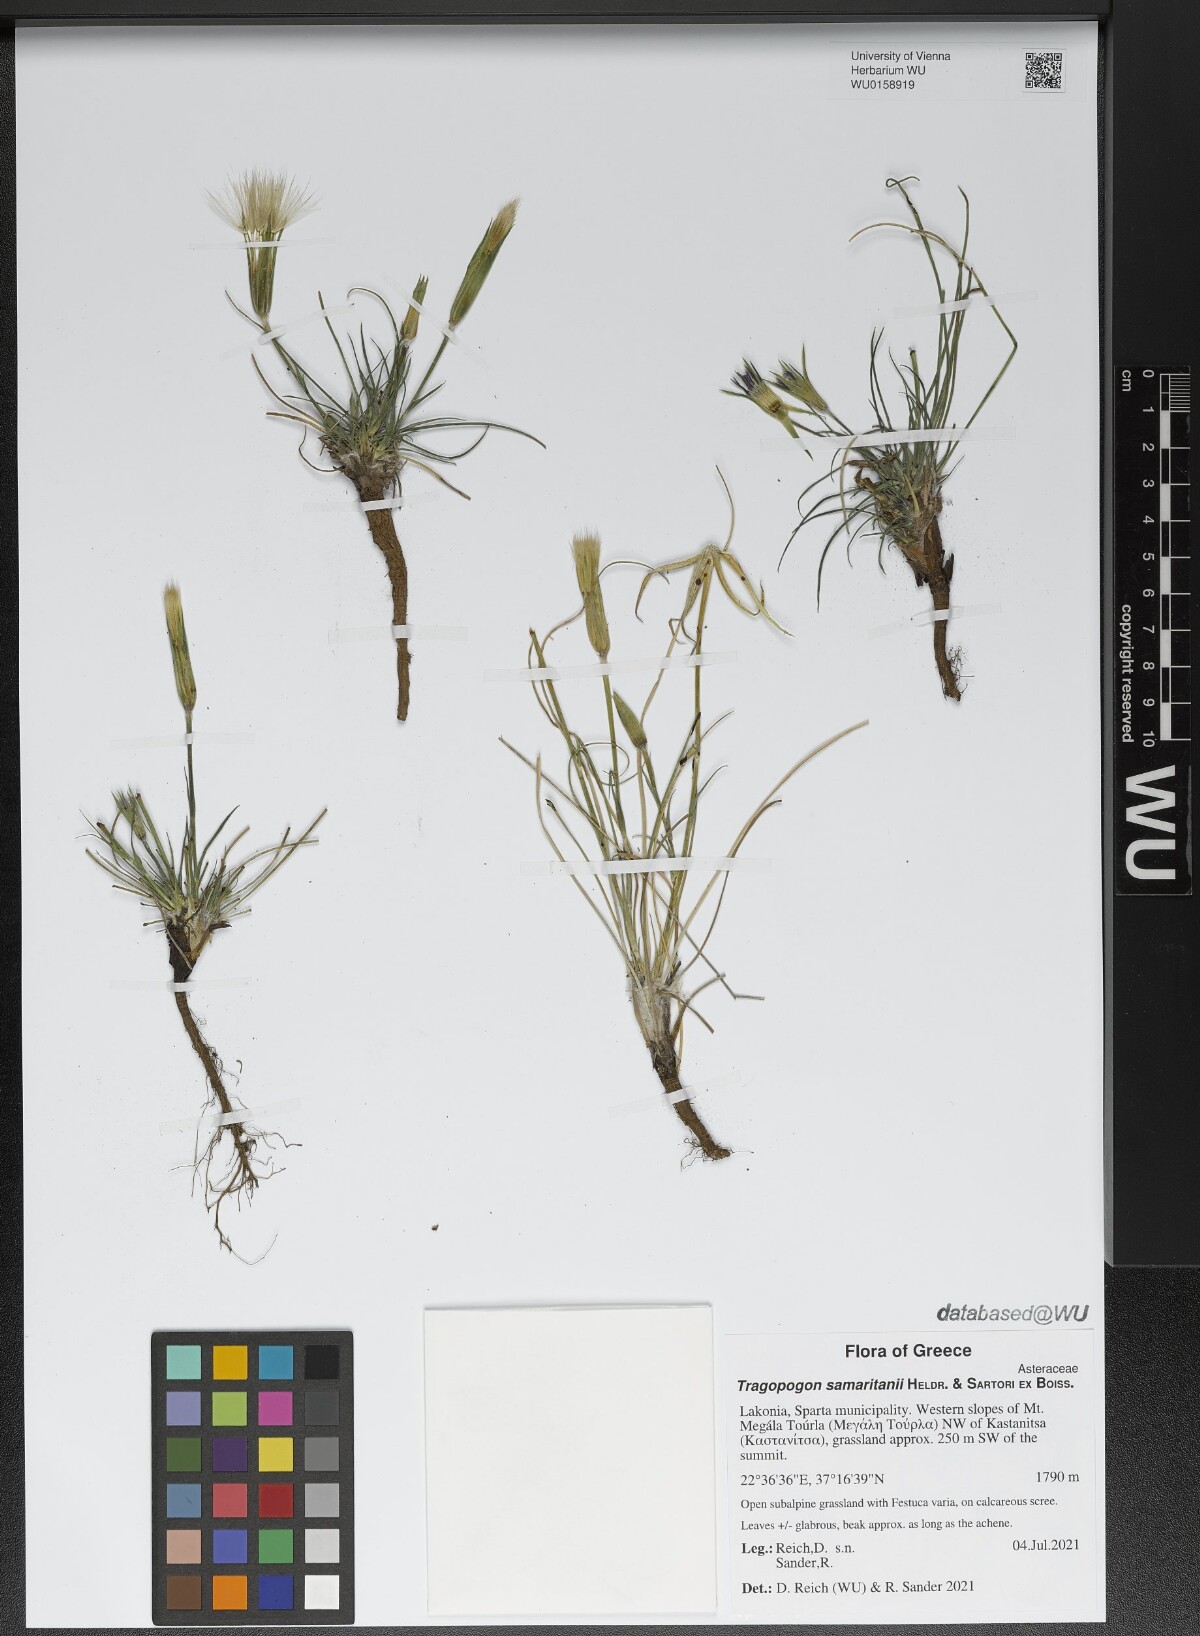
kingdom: Plantae
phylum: Tracheophyta
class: Magnoliopsida
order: Asterales
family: Asteraceae
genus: Tragopogon
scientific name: Tragopogon samaritani
